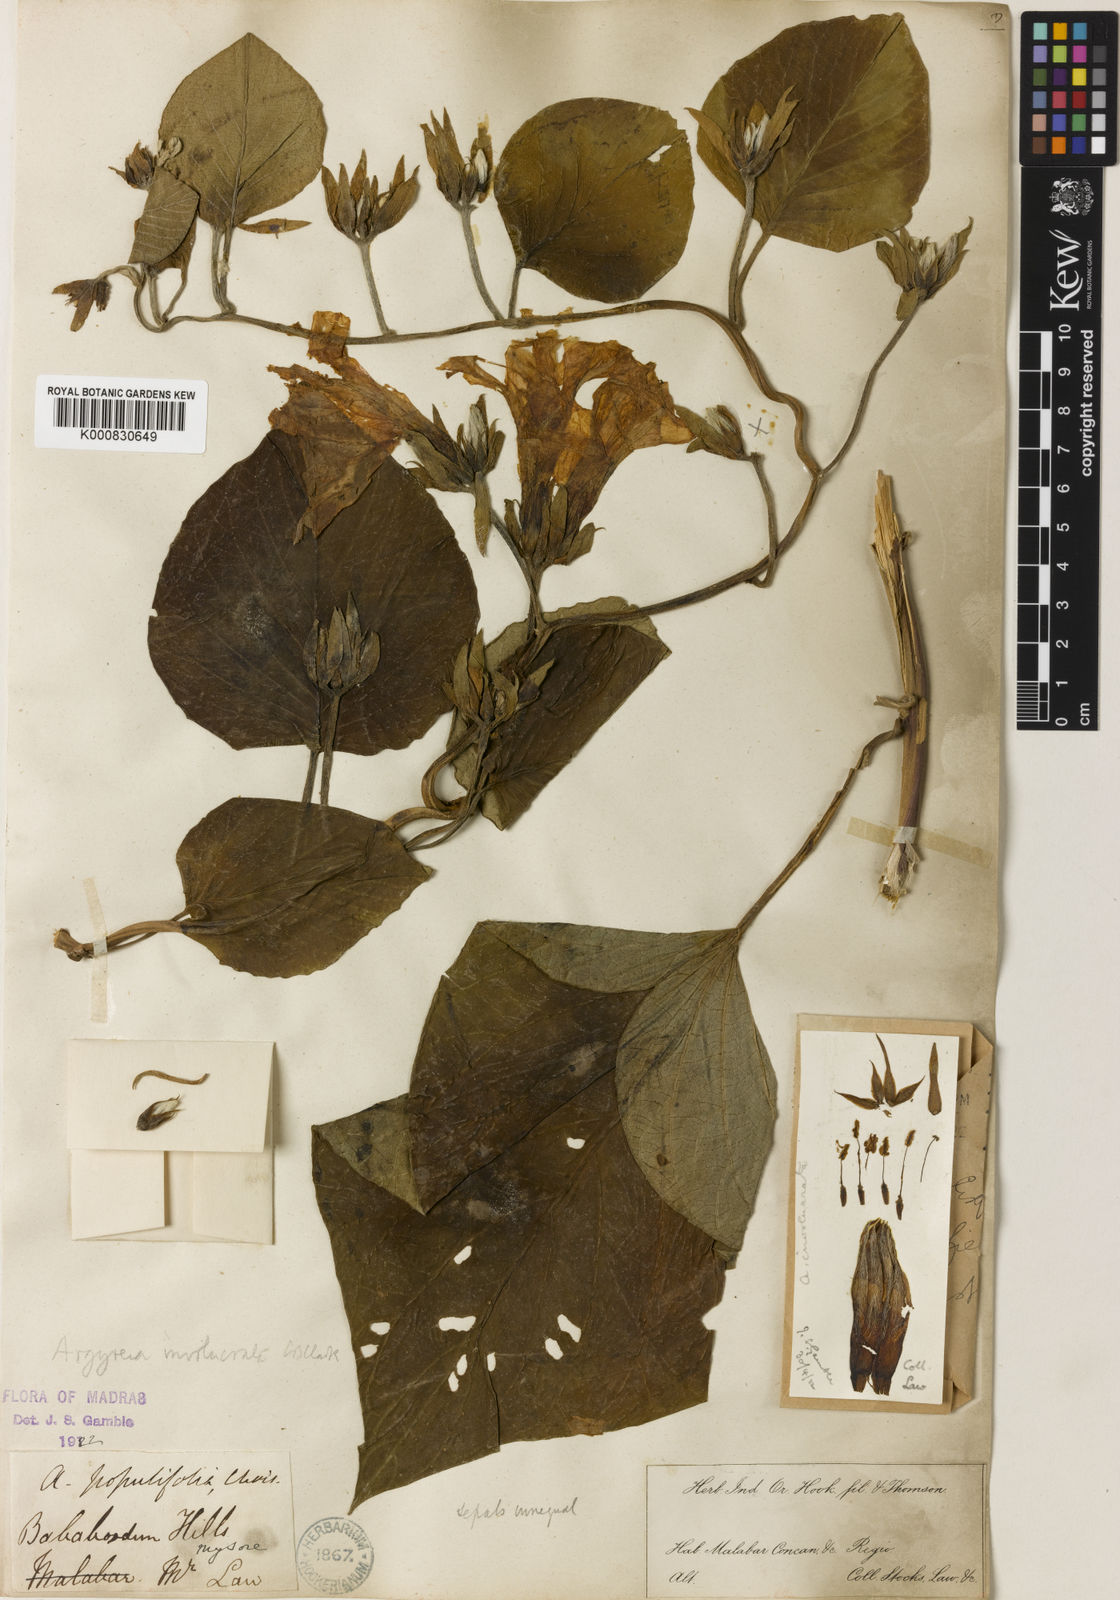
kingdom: Plantae
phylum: Tracheophyta
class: Magnoliopsida
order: Solanales
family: Convolvulaceae
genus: Argyreia
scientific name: Argyreia involucrata
